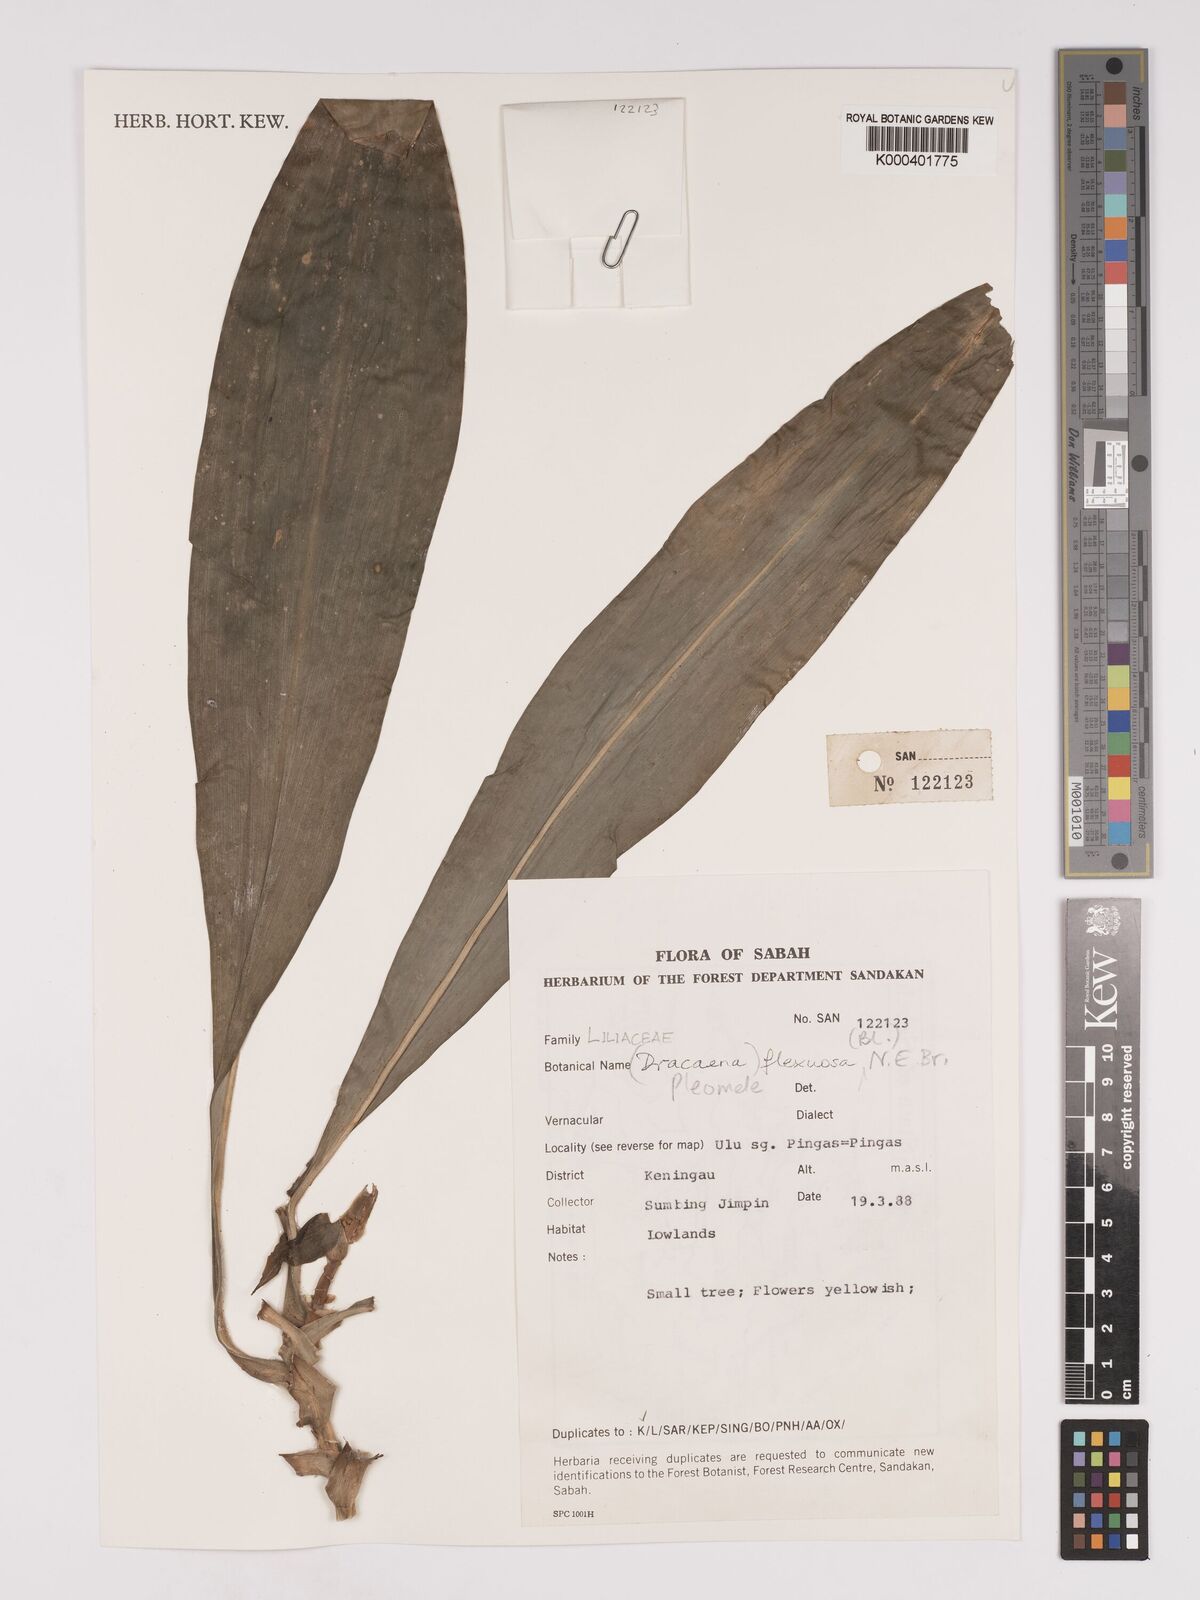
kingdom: Plantae
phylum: Tracheophyta
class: Liliopsida
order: Asparagales
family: Asparagaceae
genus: Dracaena
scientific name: Dracaena reflexa
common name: Song-of-india
